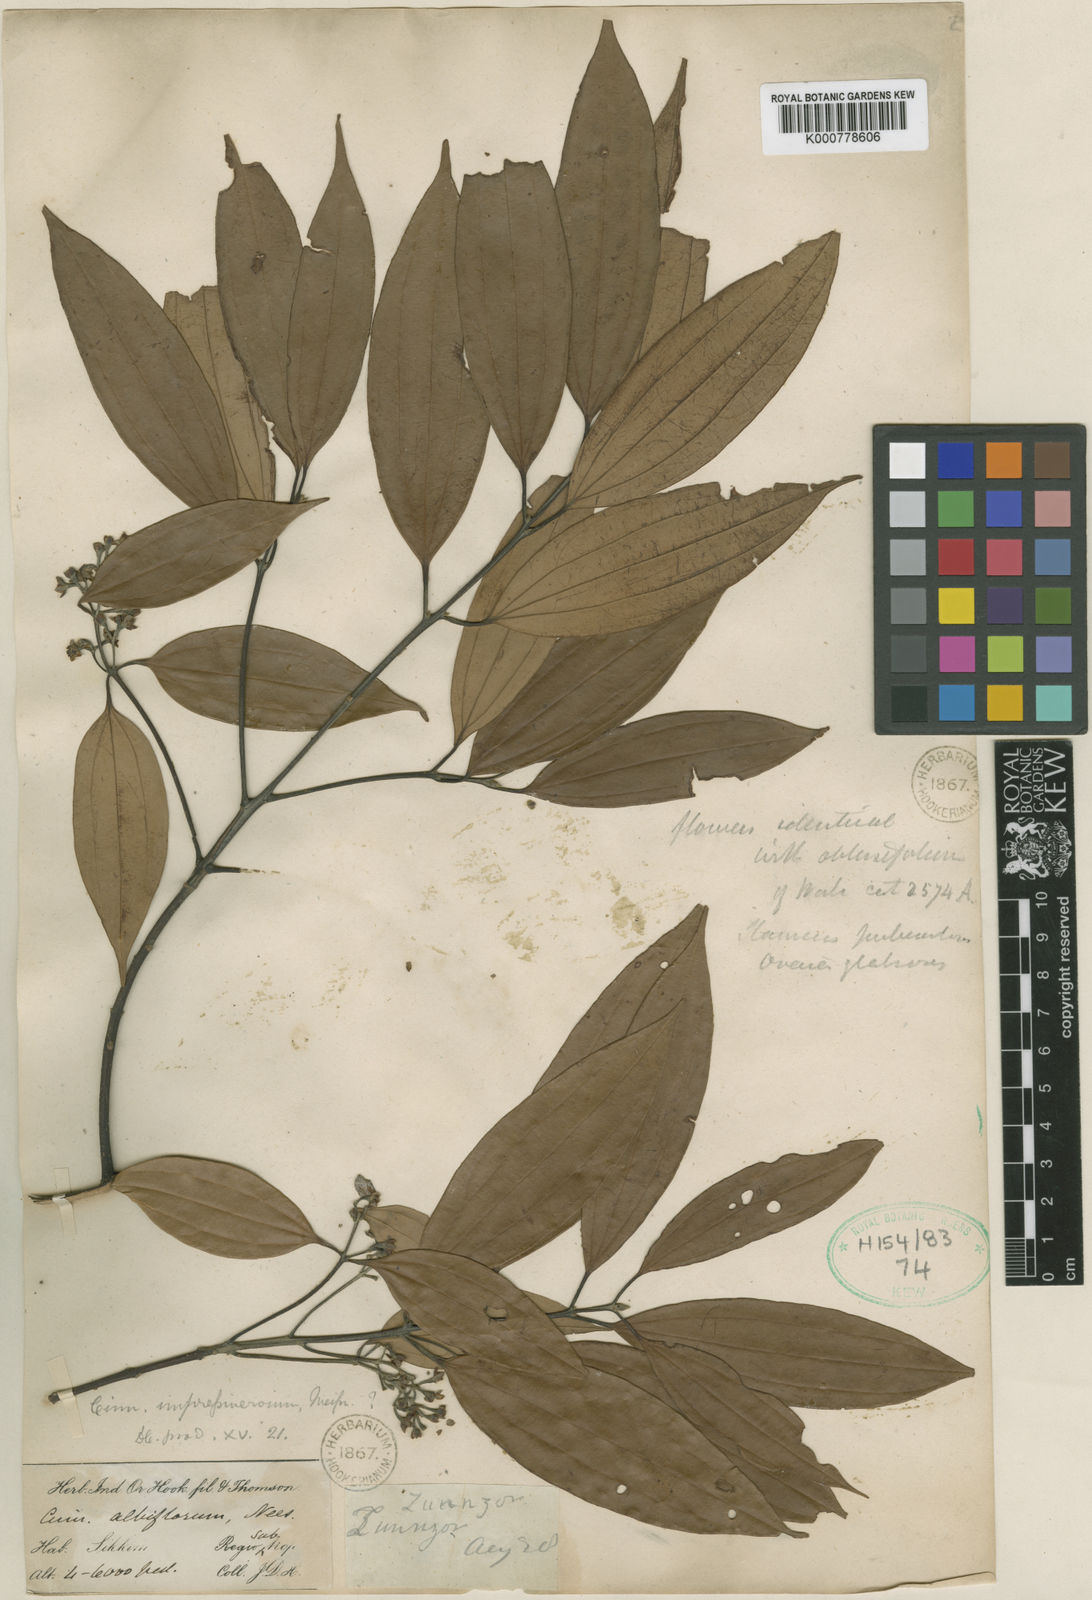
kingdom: Plantae
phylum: Tracheophyta
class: Magnoliopsida
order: Laurales
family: Lauraceae
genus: Cinnamomum
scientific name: Cinnamomum impressinervium
